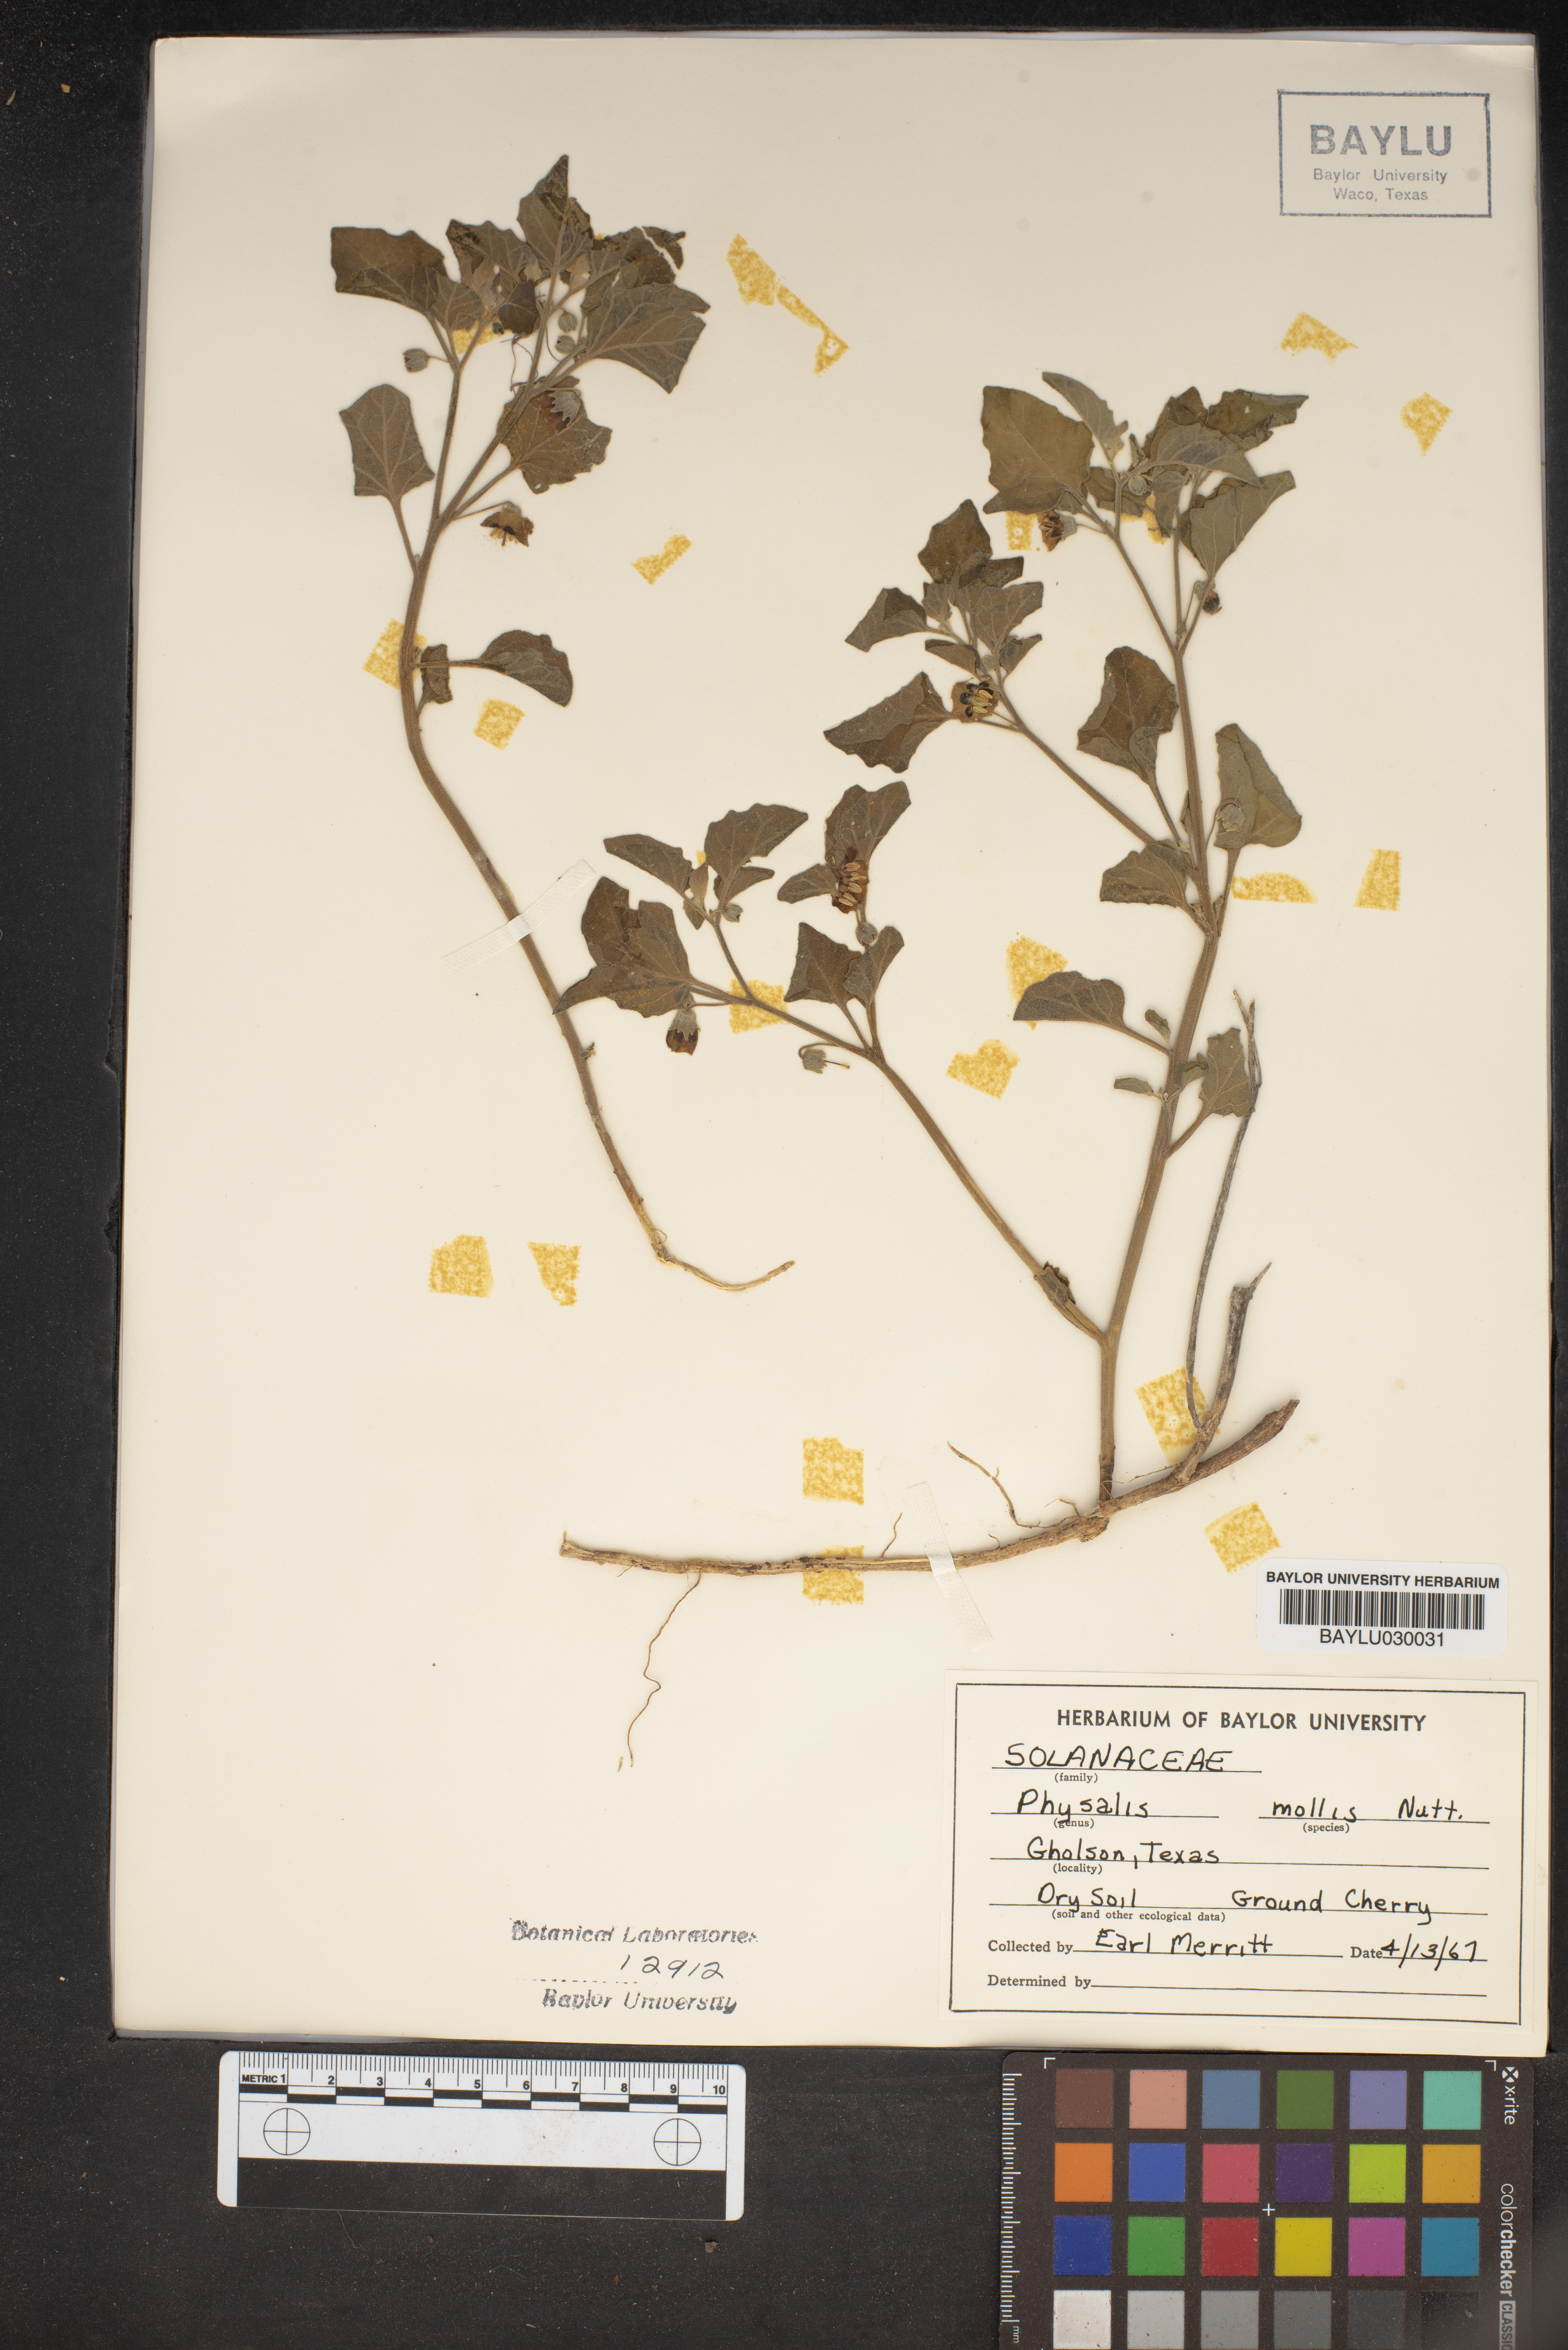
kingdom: Plantae
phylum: Tracheophyta
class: Magnoliopsida
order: Solanales
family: Solanaceae
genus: Physalis
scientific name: Physalis mollis
